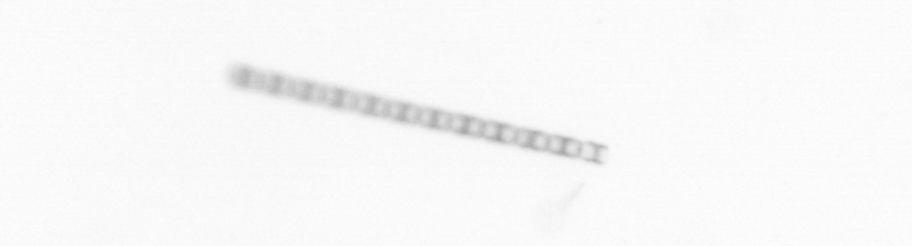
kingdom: Chromista
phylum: Ochrophyta
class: Bacillariophyceae
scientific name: Bacillariophyceae
